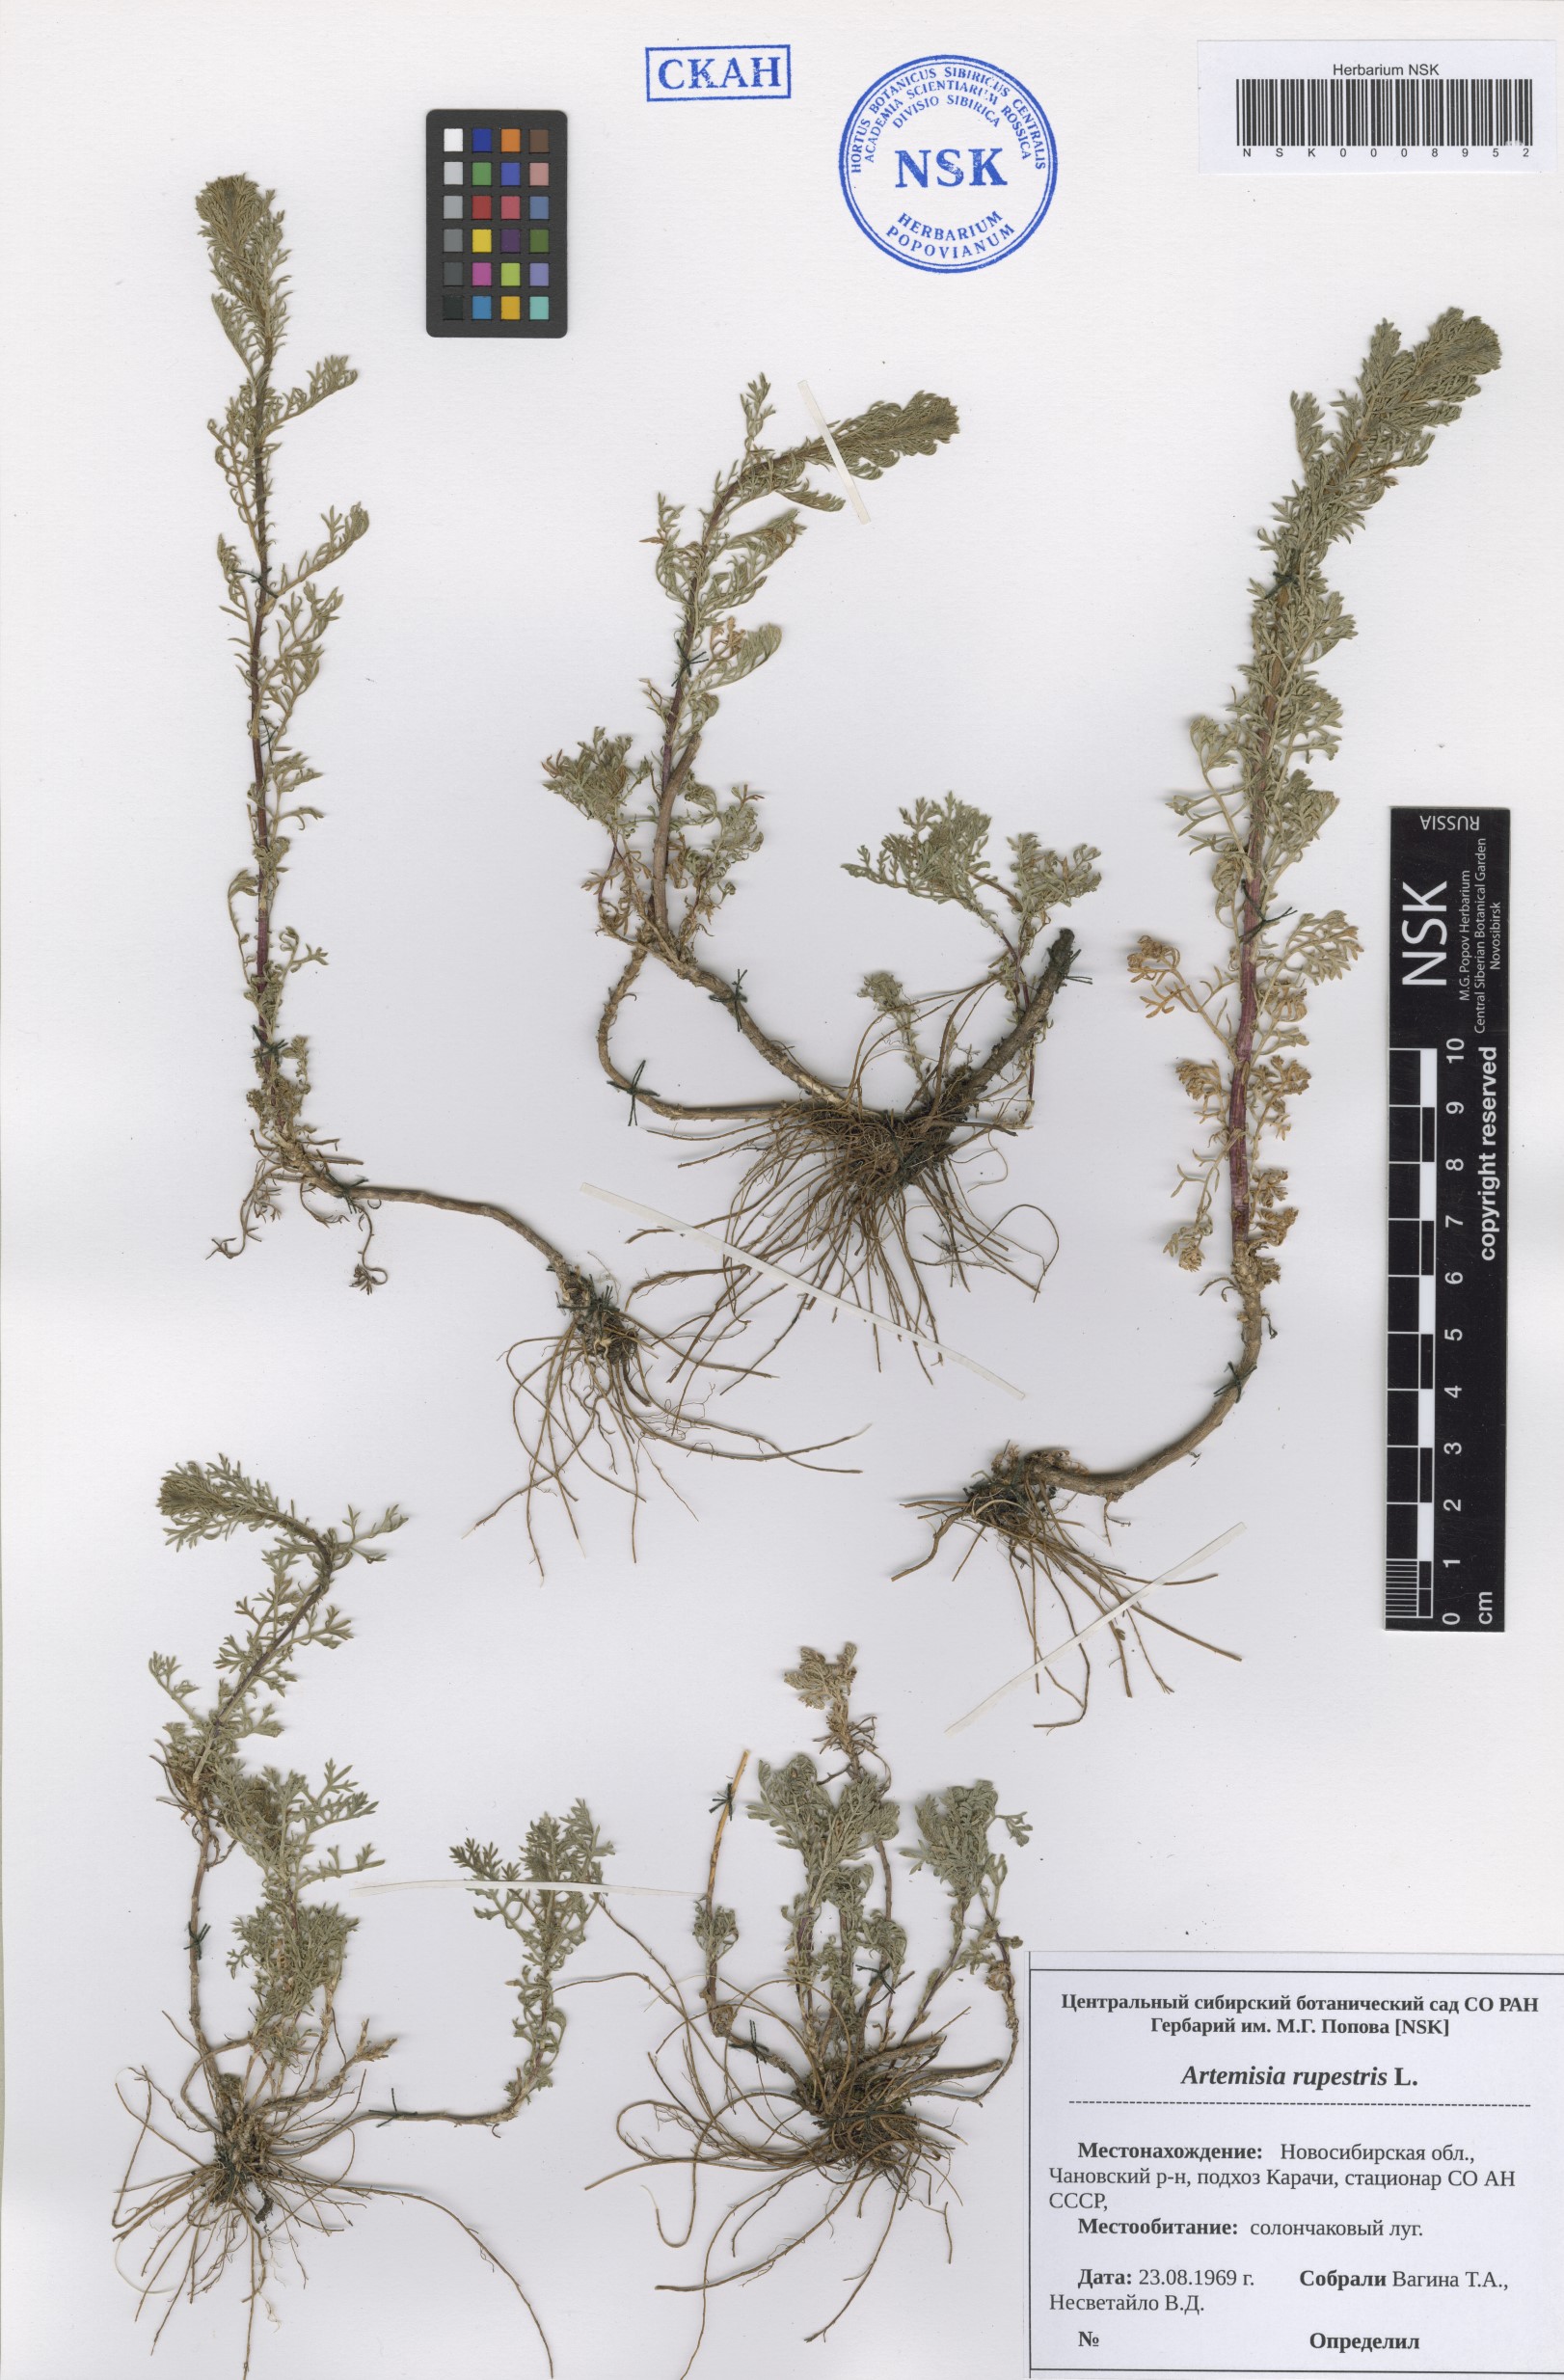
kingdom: Plantae
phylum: Tracheophyta
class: Magnoliopsida
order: Asterales
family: Asteraceae
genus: Artemisia
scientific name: Artemisia rupestris
